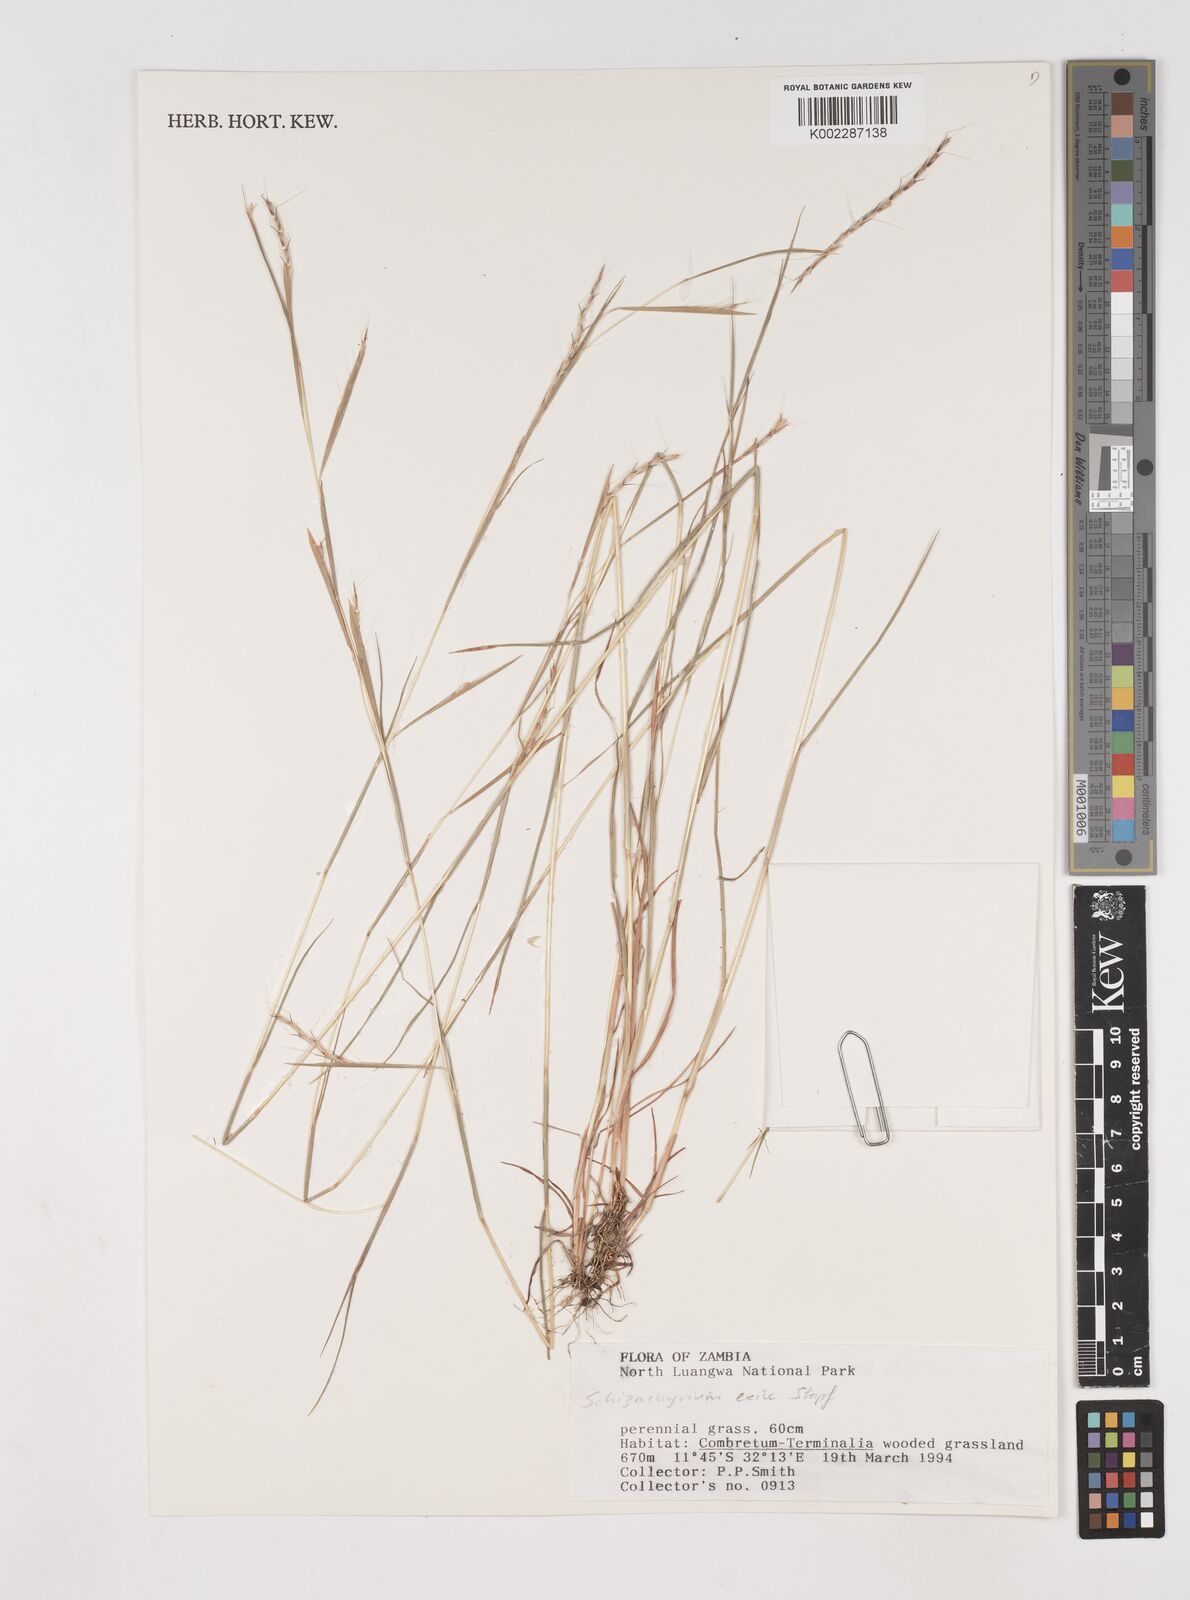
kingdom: Plantae
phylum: Tracheophyta
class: Liliopsida
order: Poales
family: Poaceae
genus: Schizachyrium
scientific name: Schizachyrium exile
